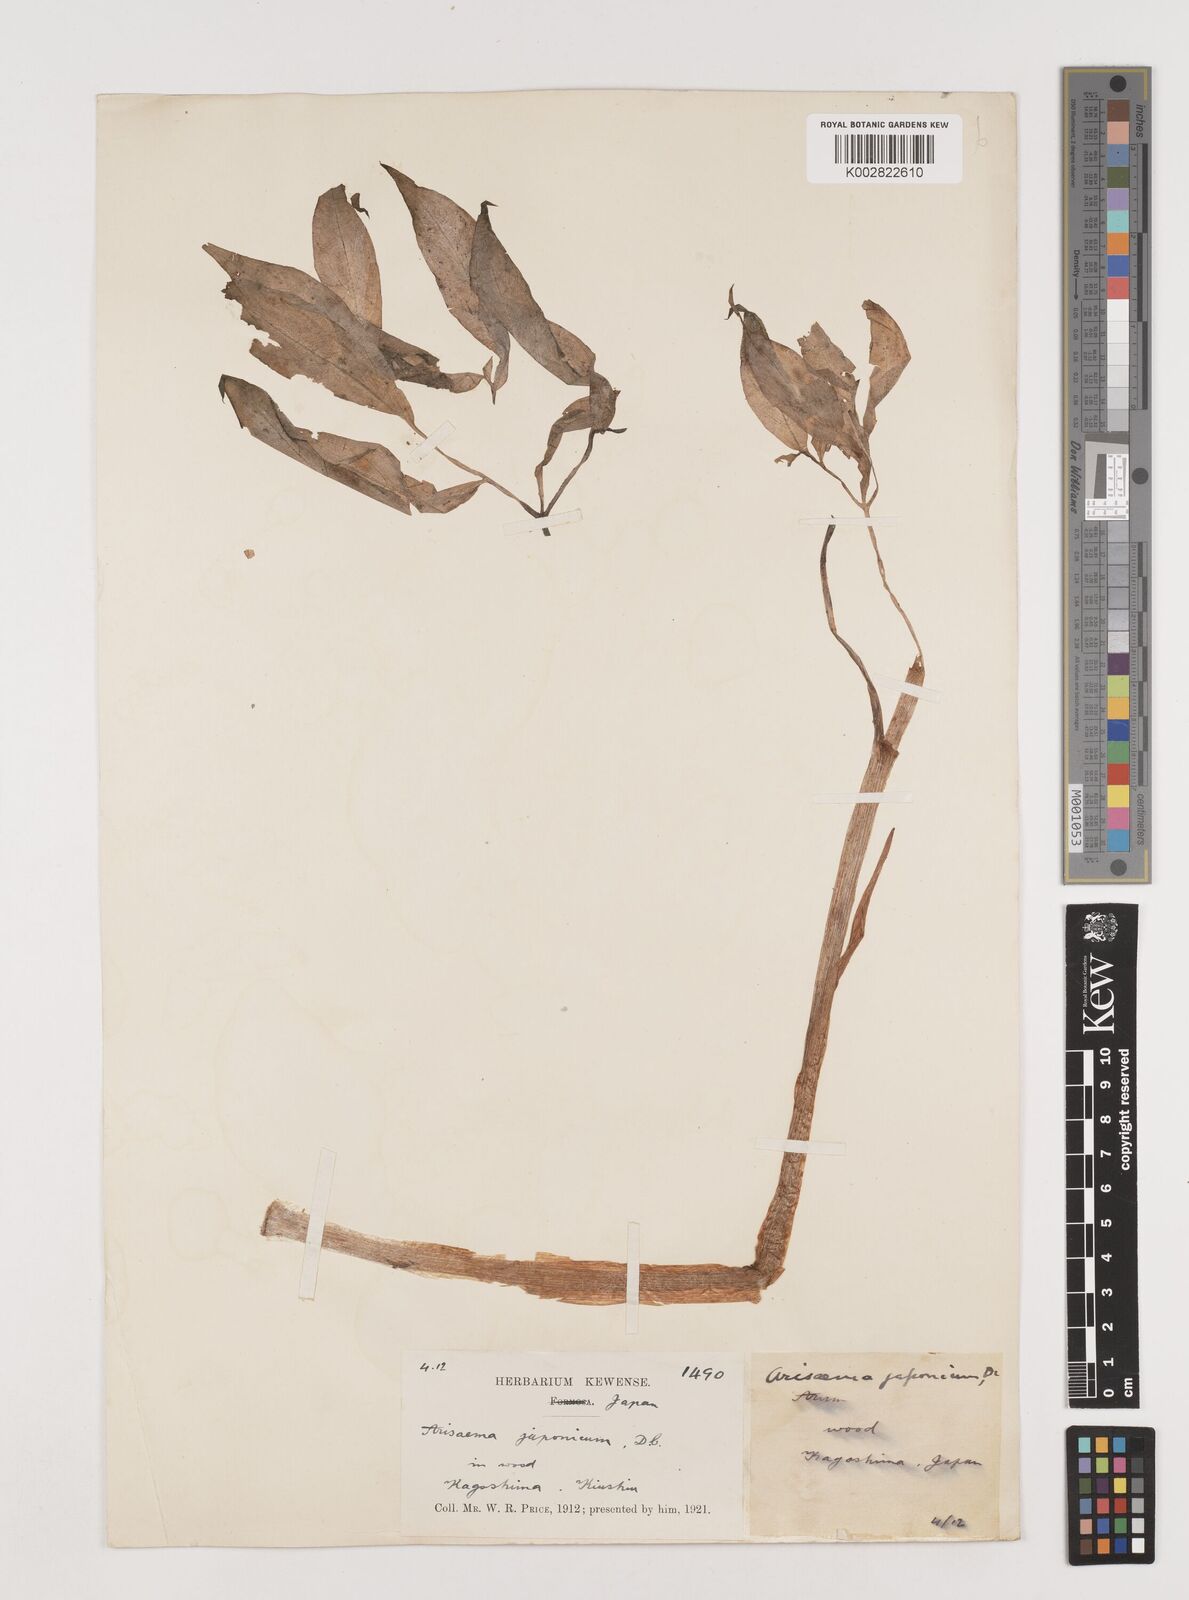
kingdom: Plantae
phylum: Tracheophyta
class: Liliopsida
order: Alismatales
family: Araceae
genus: Arisaema
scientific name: Arisaema serratum
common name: Japanese arisaema
